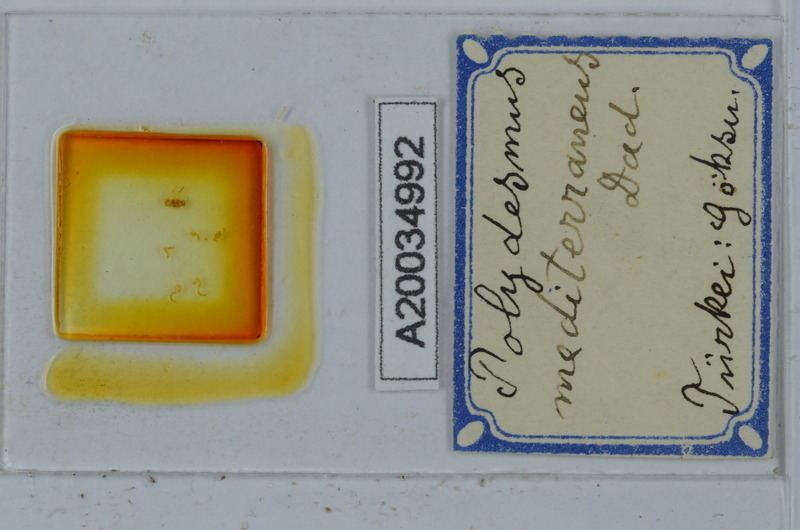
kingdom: Animalia
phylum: Arthropoda
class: Diplopoda
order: Polydesmida
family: Polydesmidae
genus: Polydesmus
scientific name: Polydesmus mediterraneus
